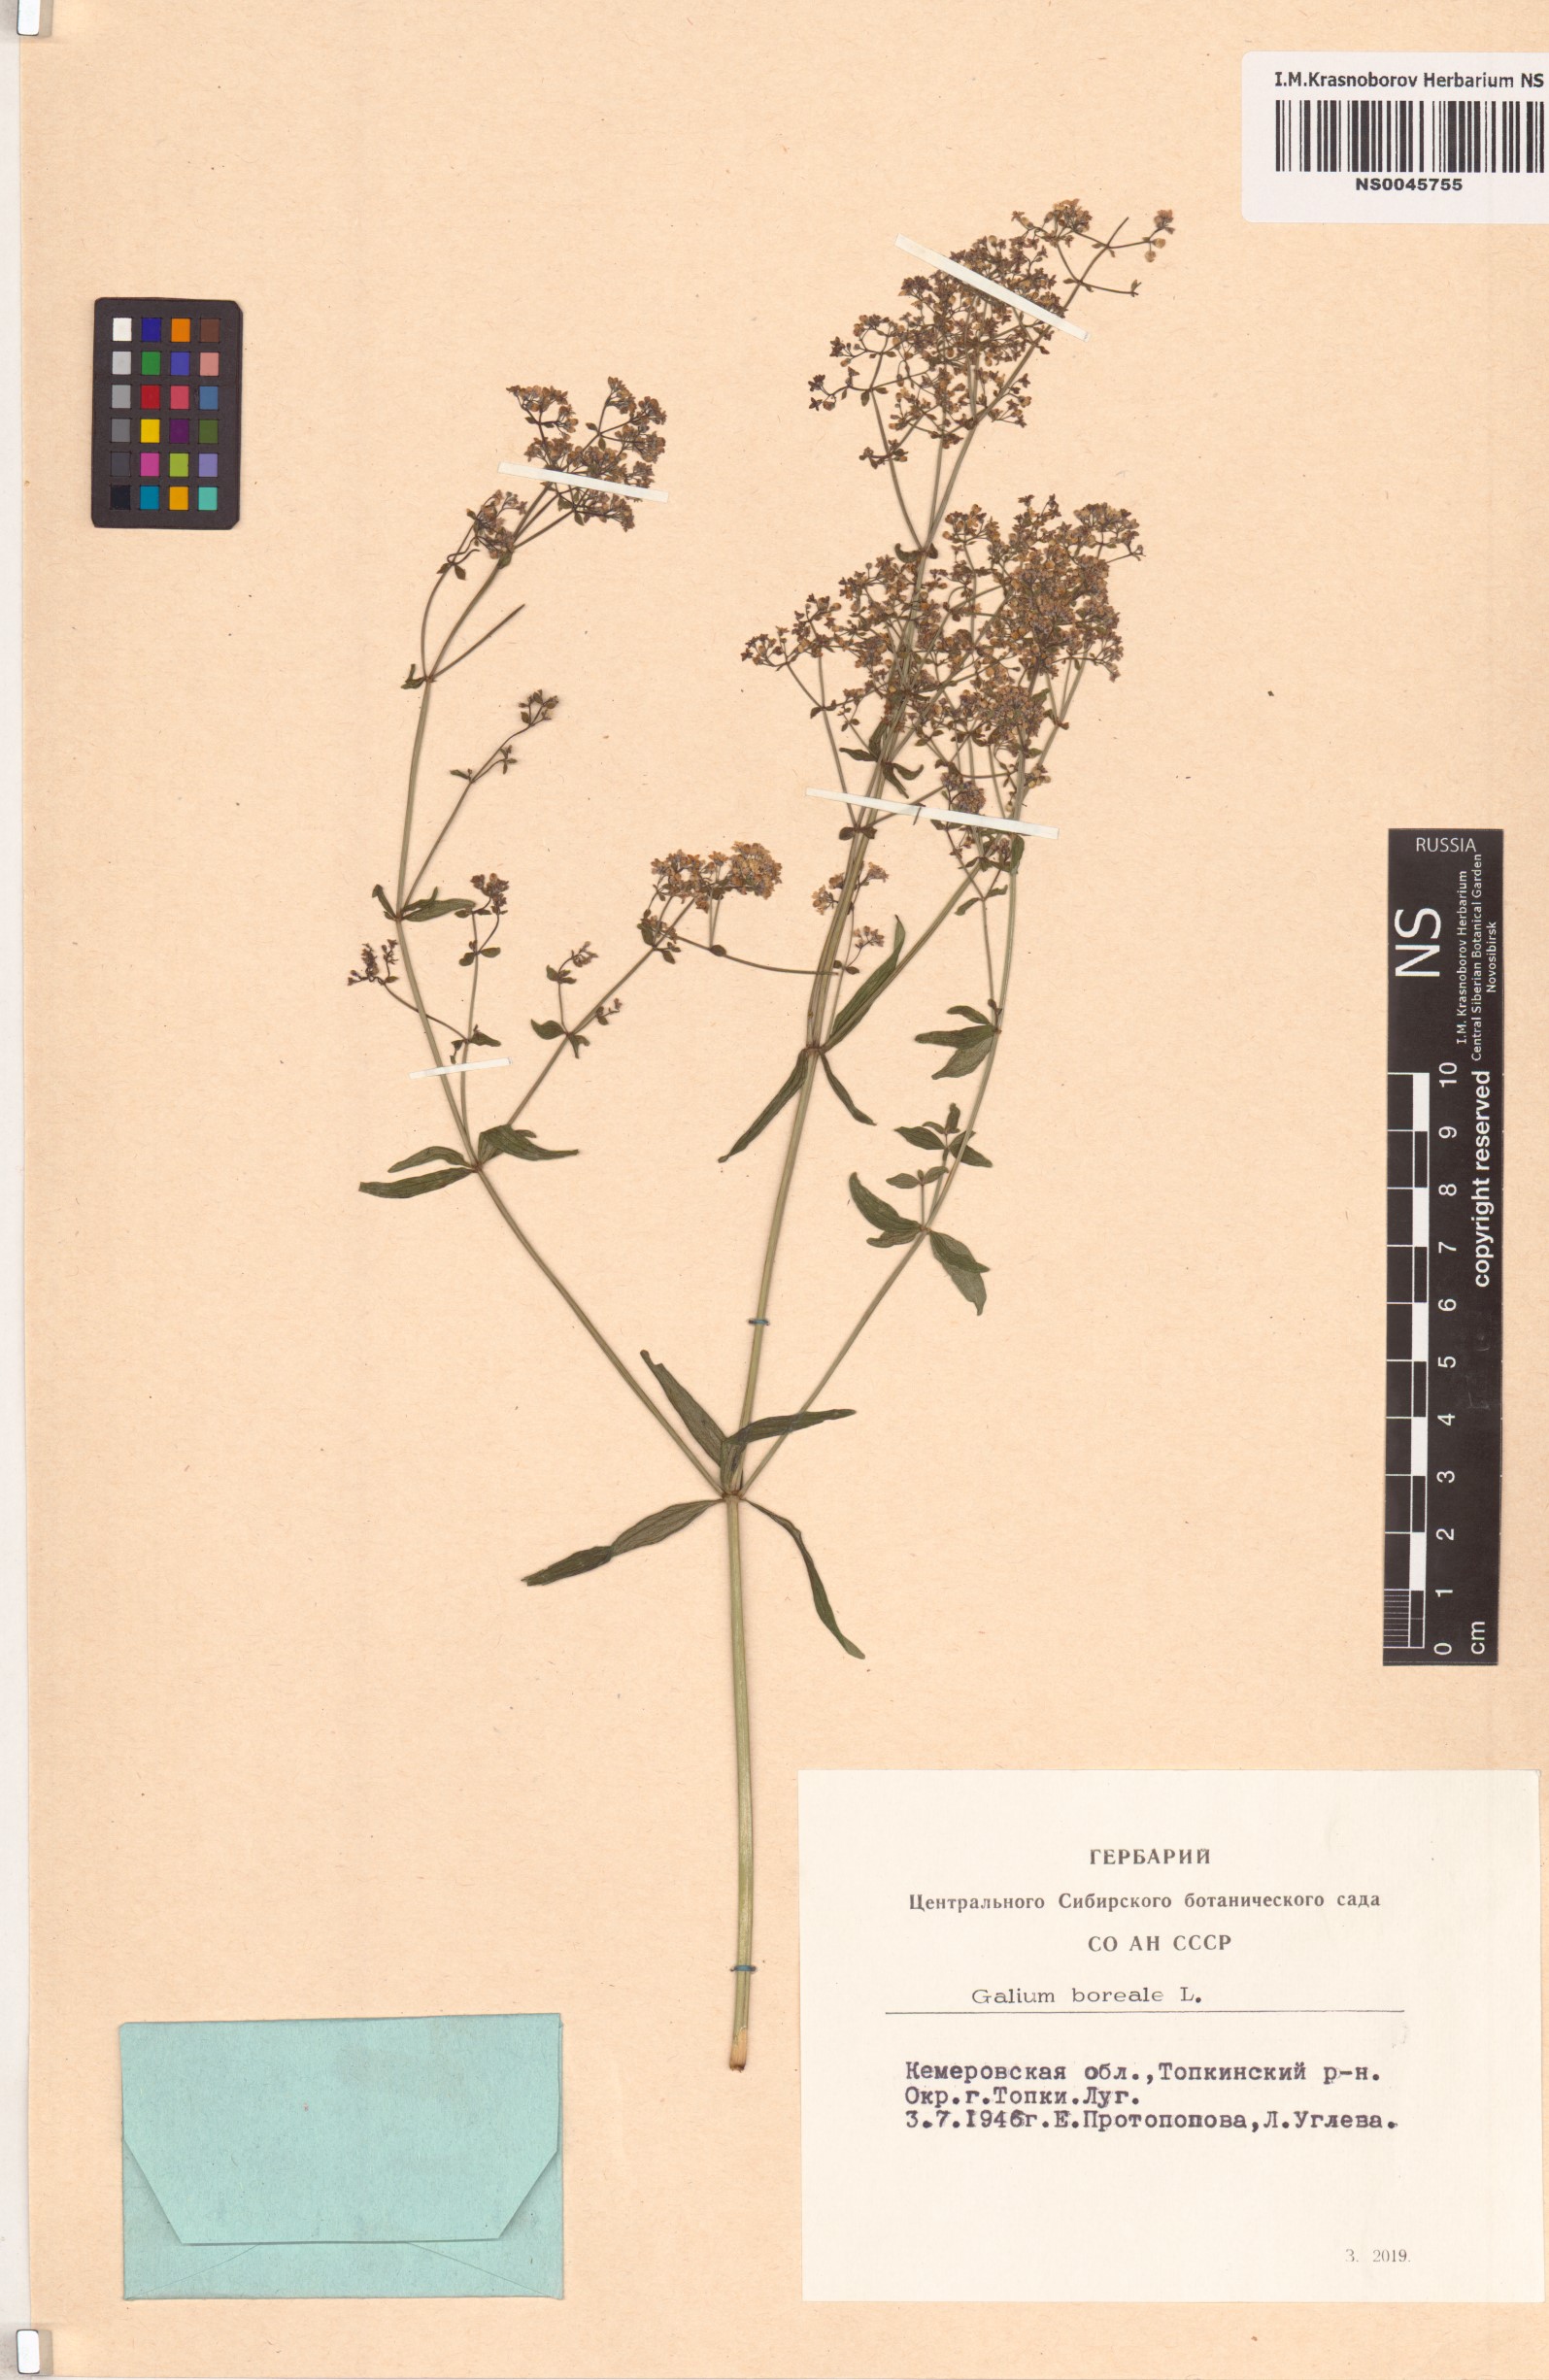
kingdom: Plantae
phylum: Tracheophyta
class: Magnoliopsida
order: Gentianales
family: Rubiaceae
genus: Galium
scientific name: Galium boreale
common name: Northern bedstraw
